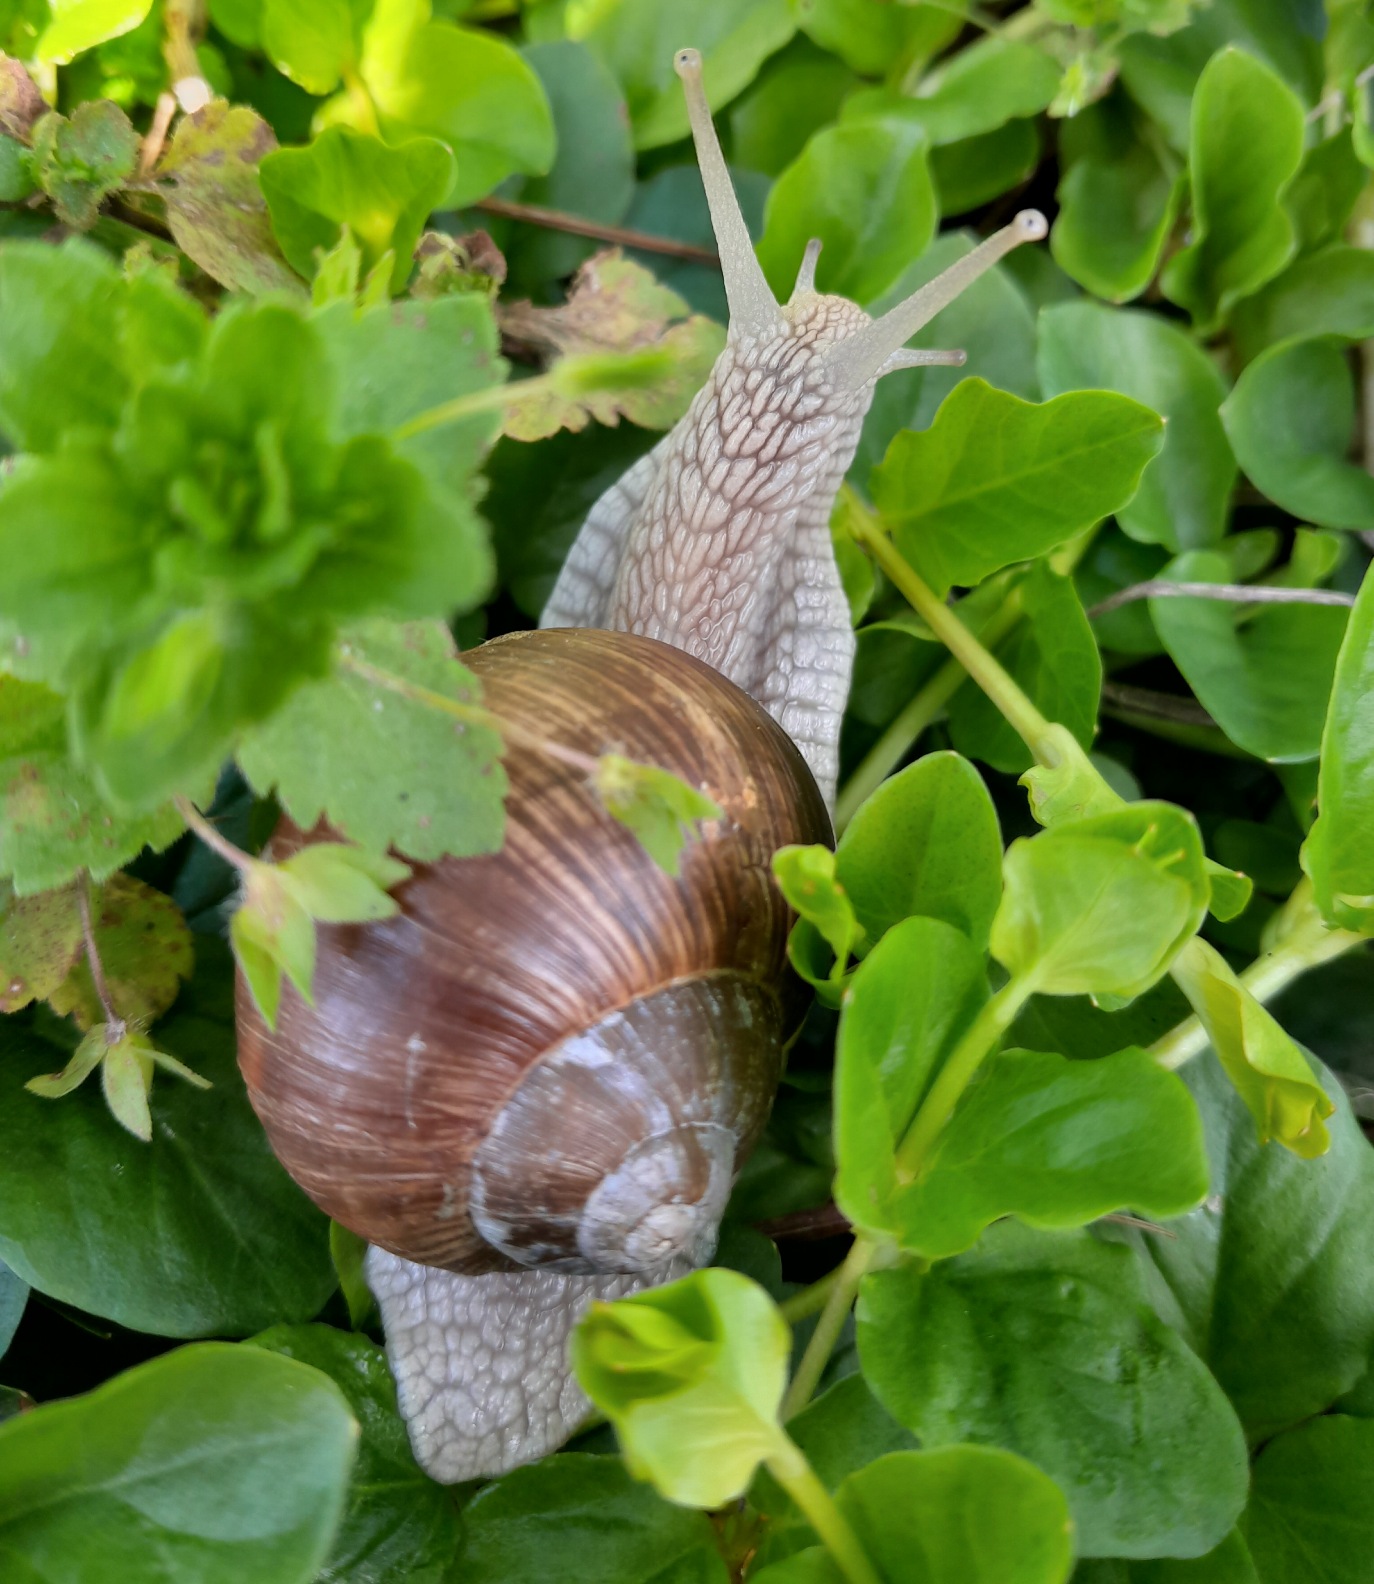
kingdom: Animalia
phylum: Mollusca
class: Gastropoda
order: Stylommatophora
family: Helicidae
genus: Helix
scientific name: Helix pomatia
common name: Vinbjergsnegl
